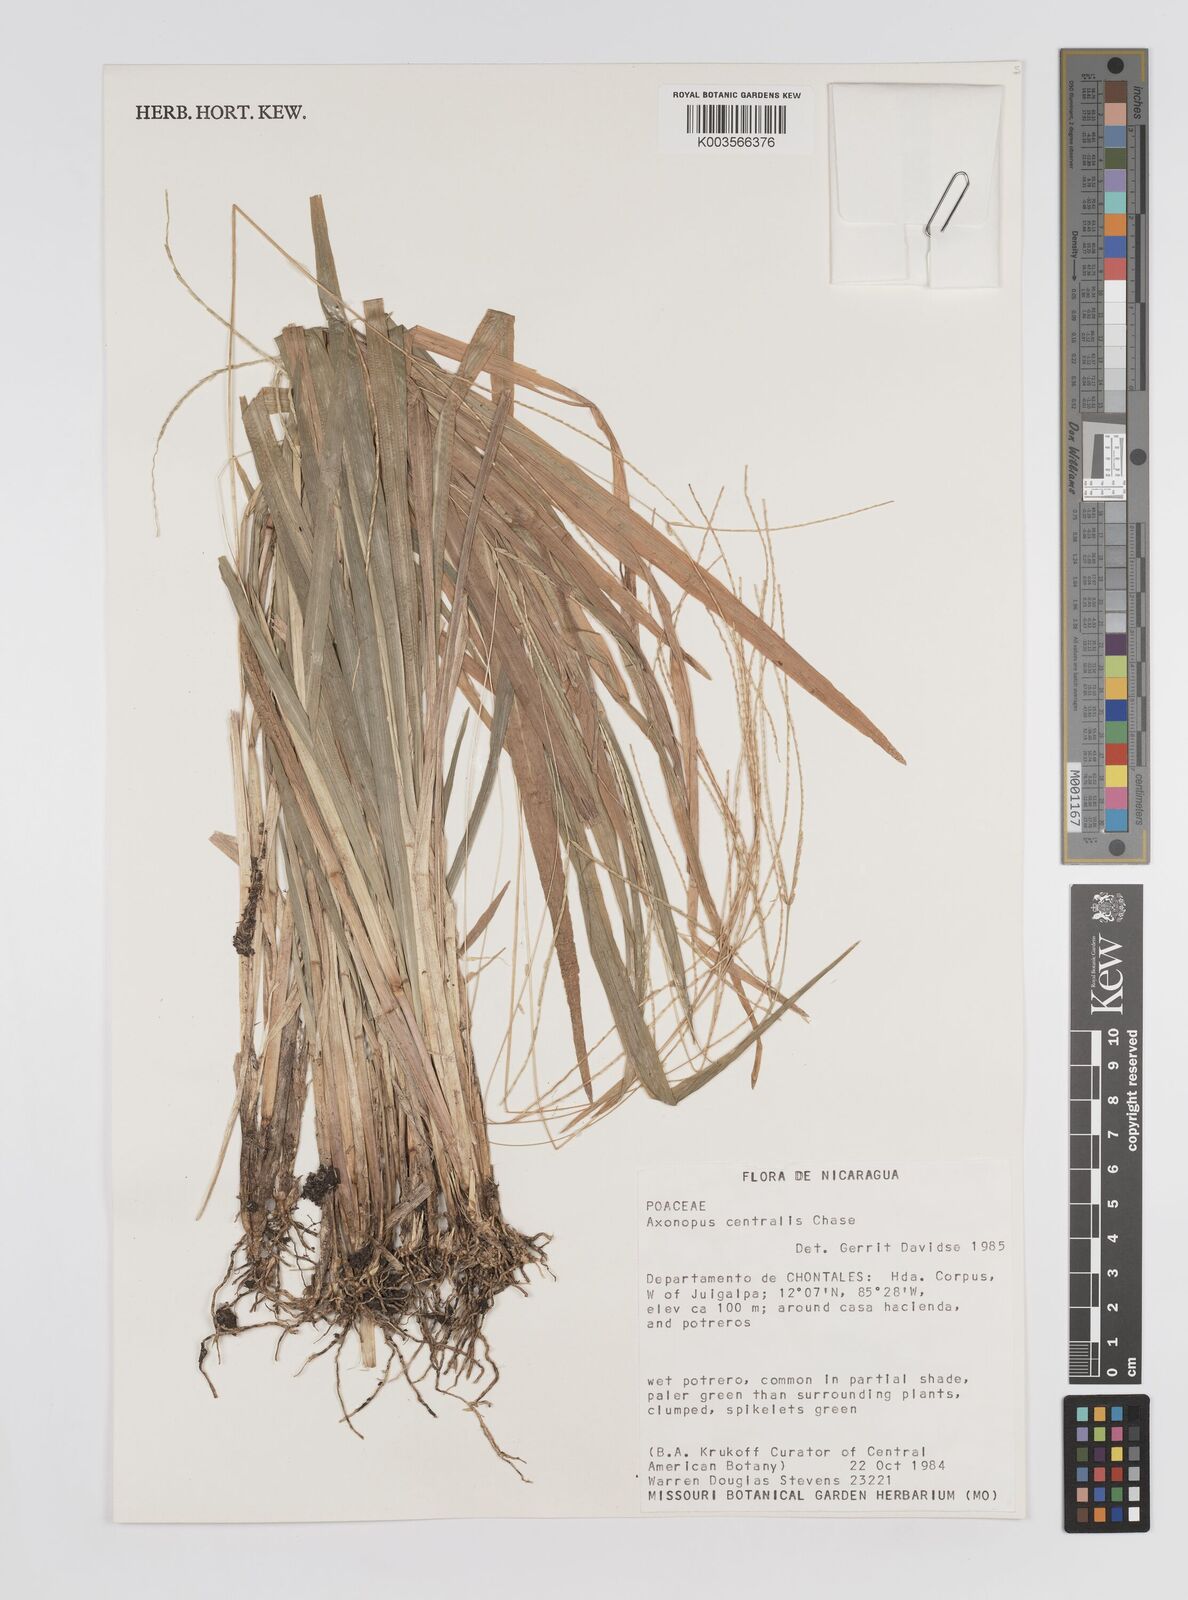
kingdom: Plantae
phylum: Tracheophyta
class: Liliopsida
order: Poales
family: Poaceae
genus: Axonopus
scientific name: Axonopus centralis
